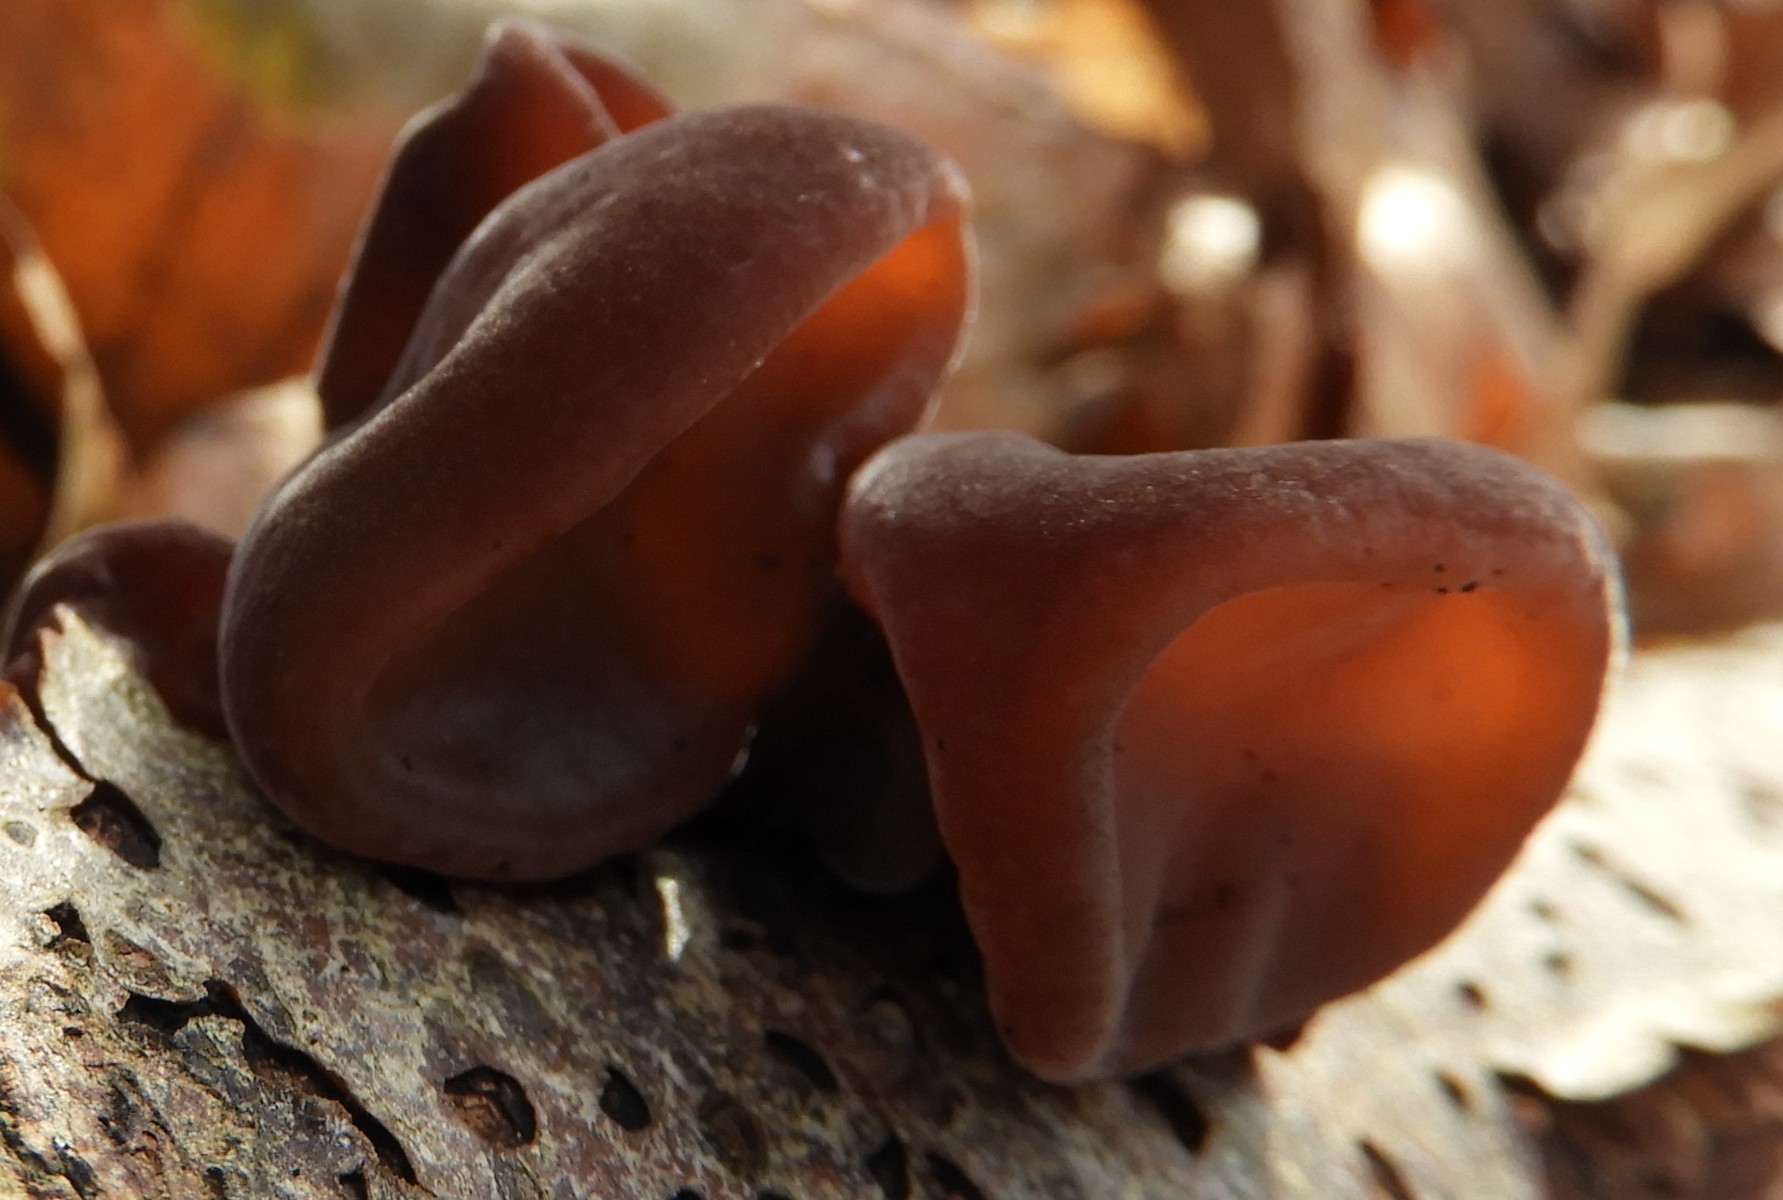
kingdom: Fungi
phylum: Basidiomycota
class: Agaricomycetes
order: Auriculariales
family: Auriculariaceae
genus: Auricularia
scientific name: Auricularia auricula-judae
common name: almindelig judasøre
